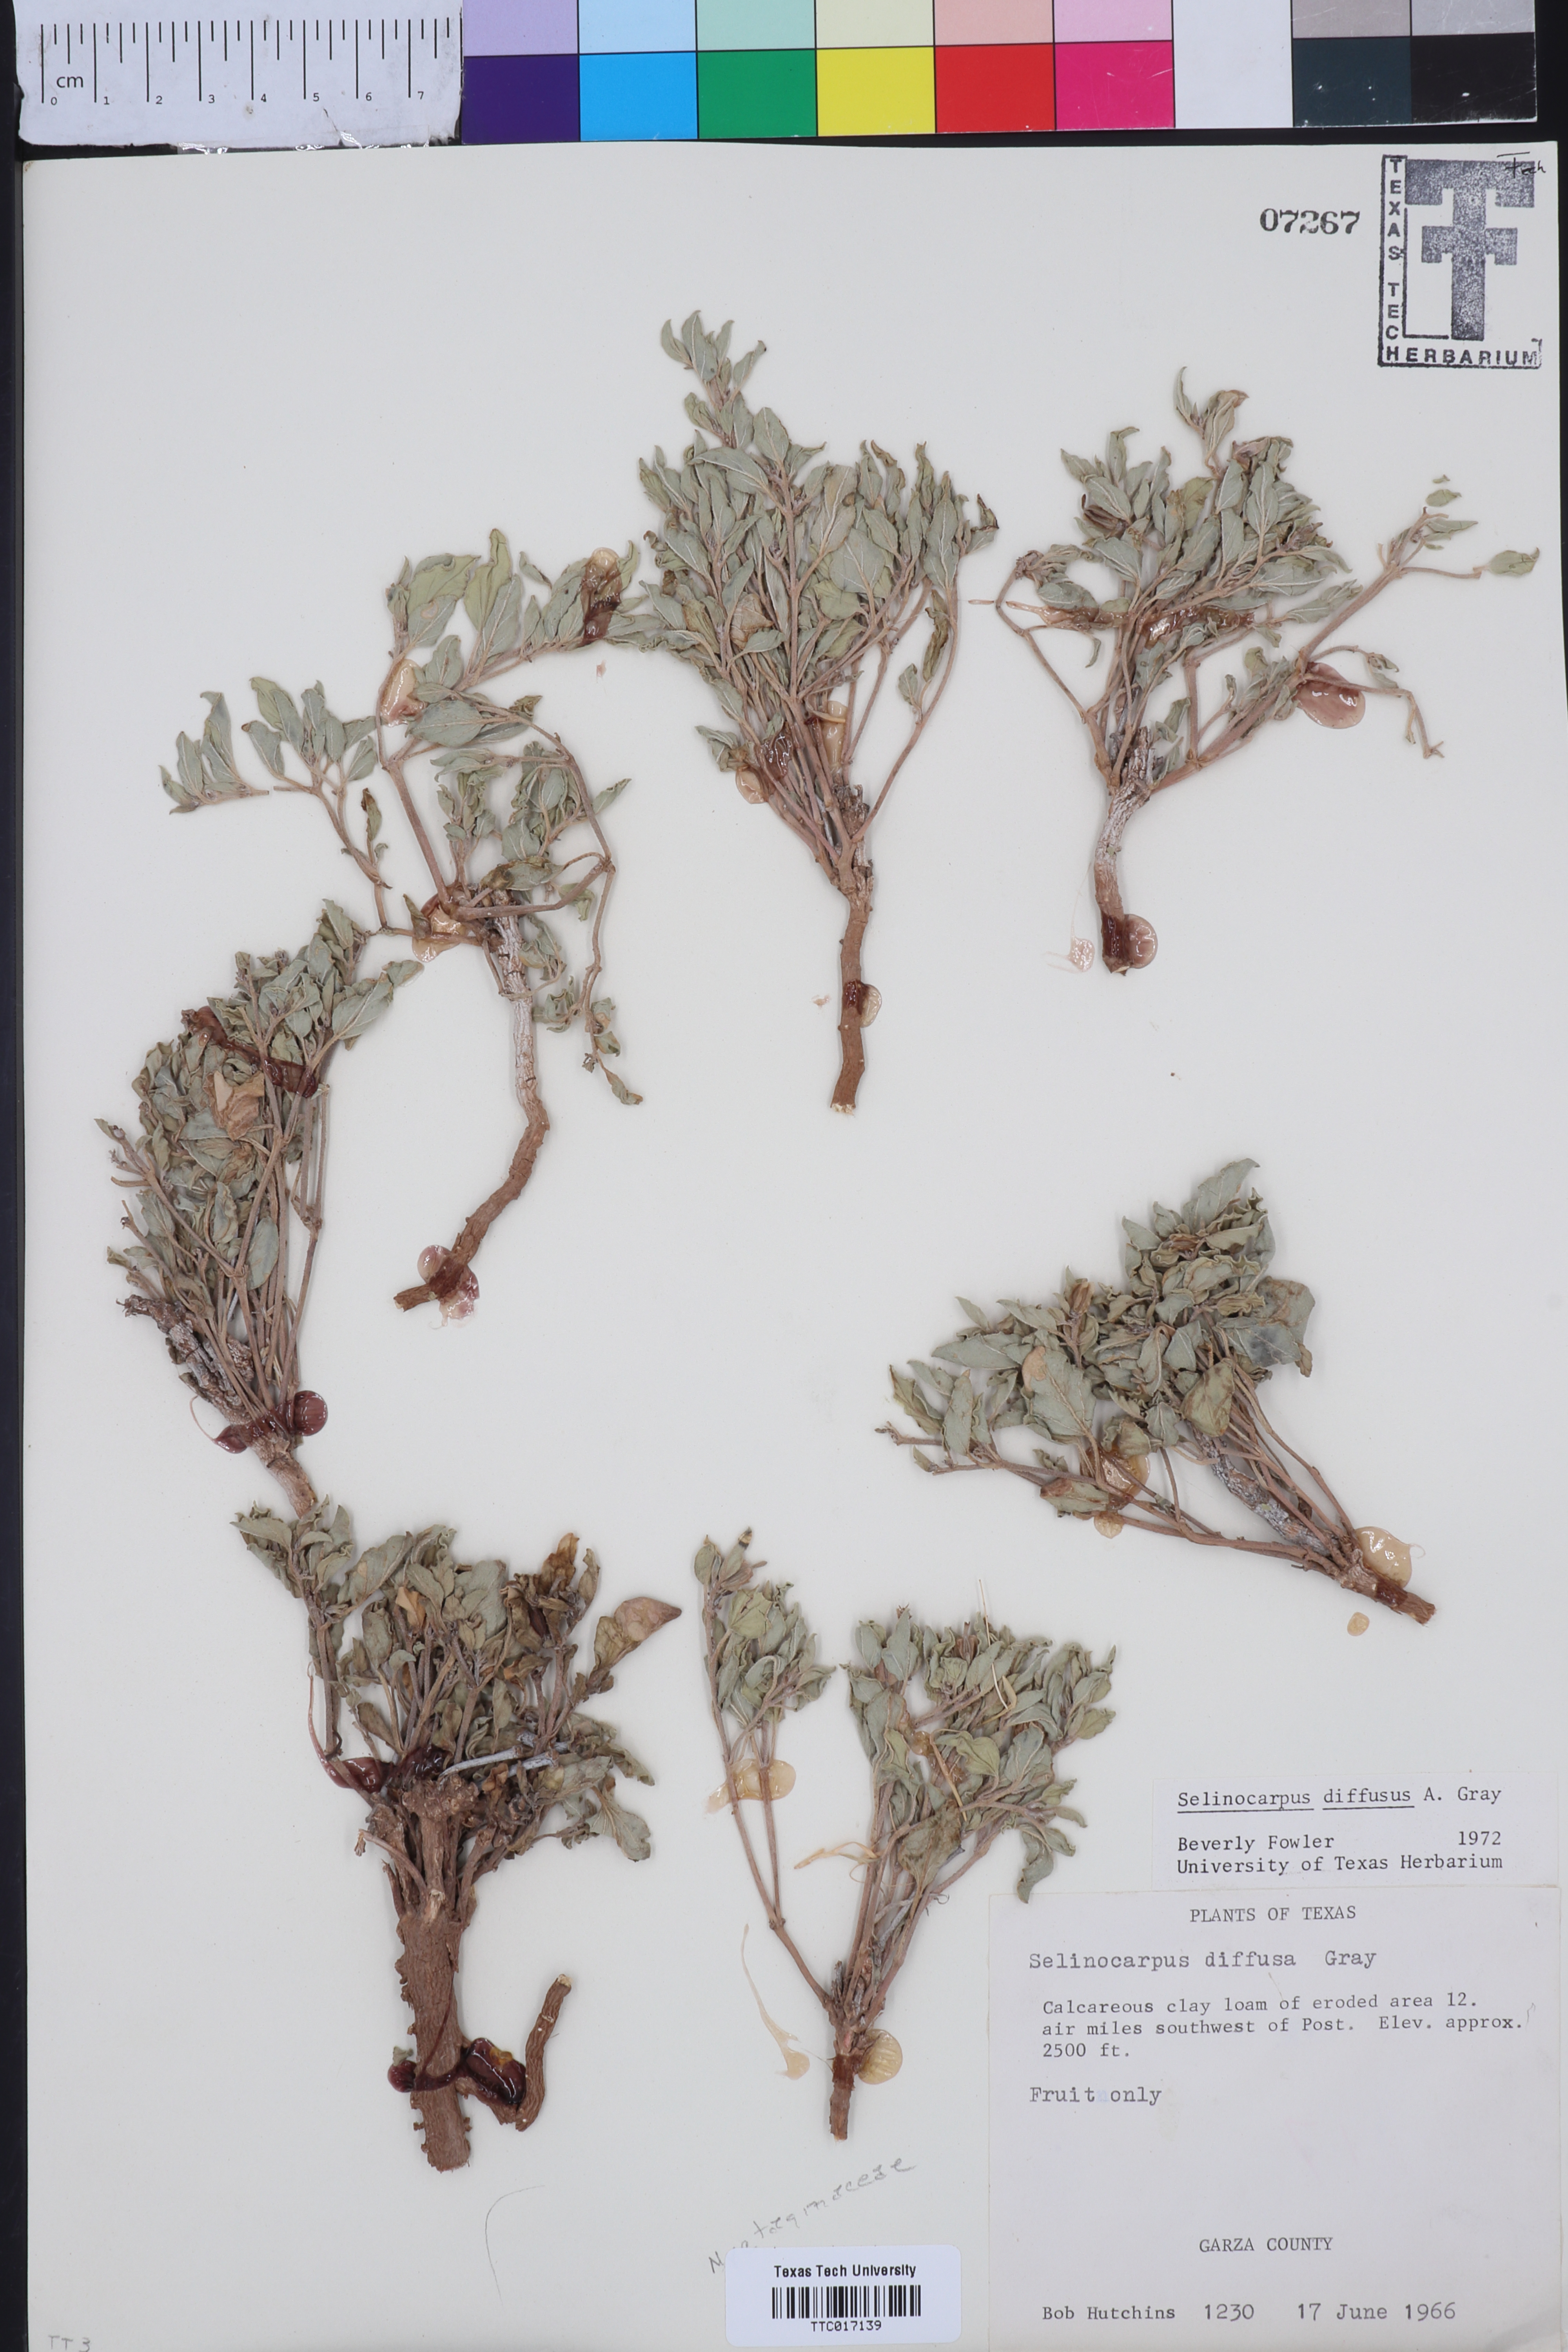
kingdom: Plantae
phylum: Tracheophyta
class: Magnoliopsida
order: Caryophyllales
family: Nyctaginaceae
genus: Acleisanthes
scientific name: Acleisanthes diffusa
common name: Spreading moonpod
